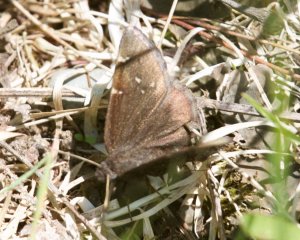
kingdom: Animalia
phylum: Arthropoda
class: Insecta
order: Lepidoptera
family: Hesperiidae
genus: Autochton
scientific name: Autochton
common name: Northern Cloudywing
